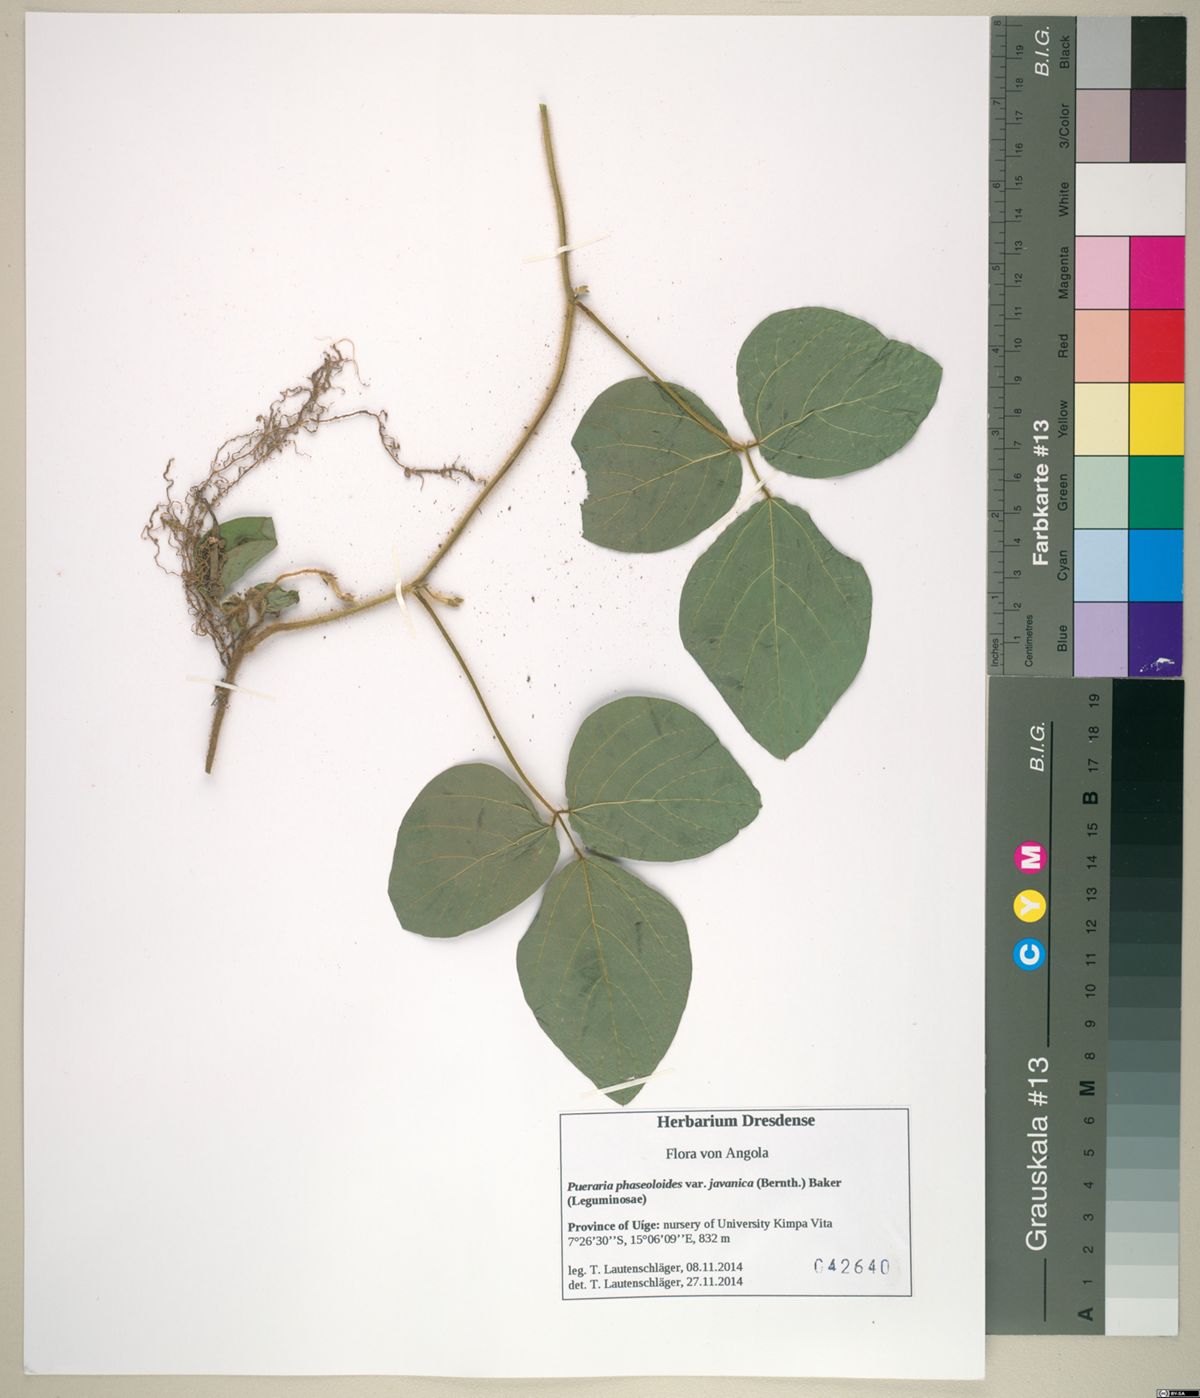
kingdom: Plantae
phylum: Tracheophyta
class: Magnoliopsida
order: Fabales
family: Fabaceae
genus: Neustanthus
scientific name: Neustanthus phaseoloides
